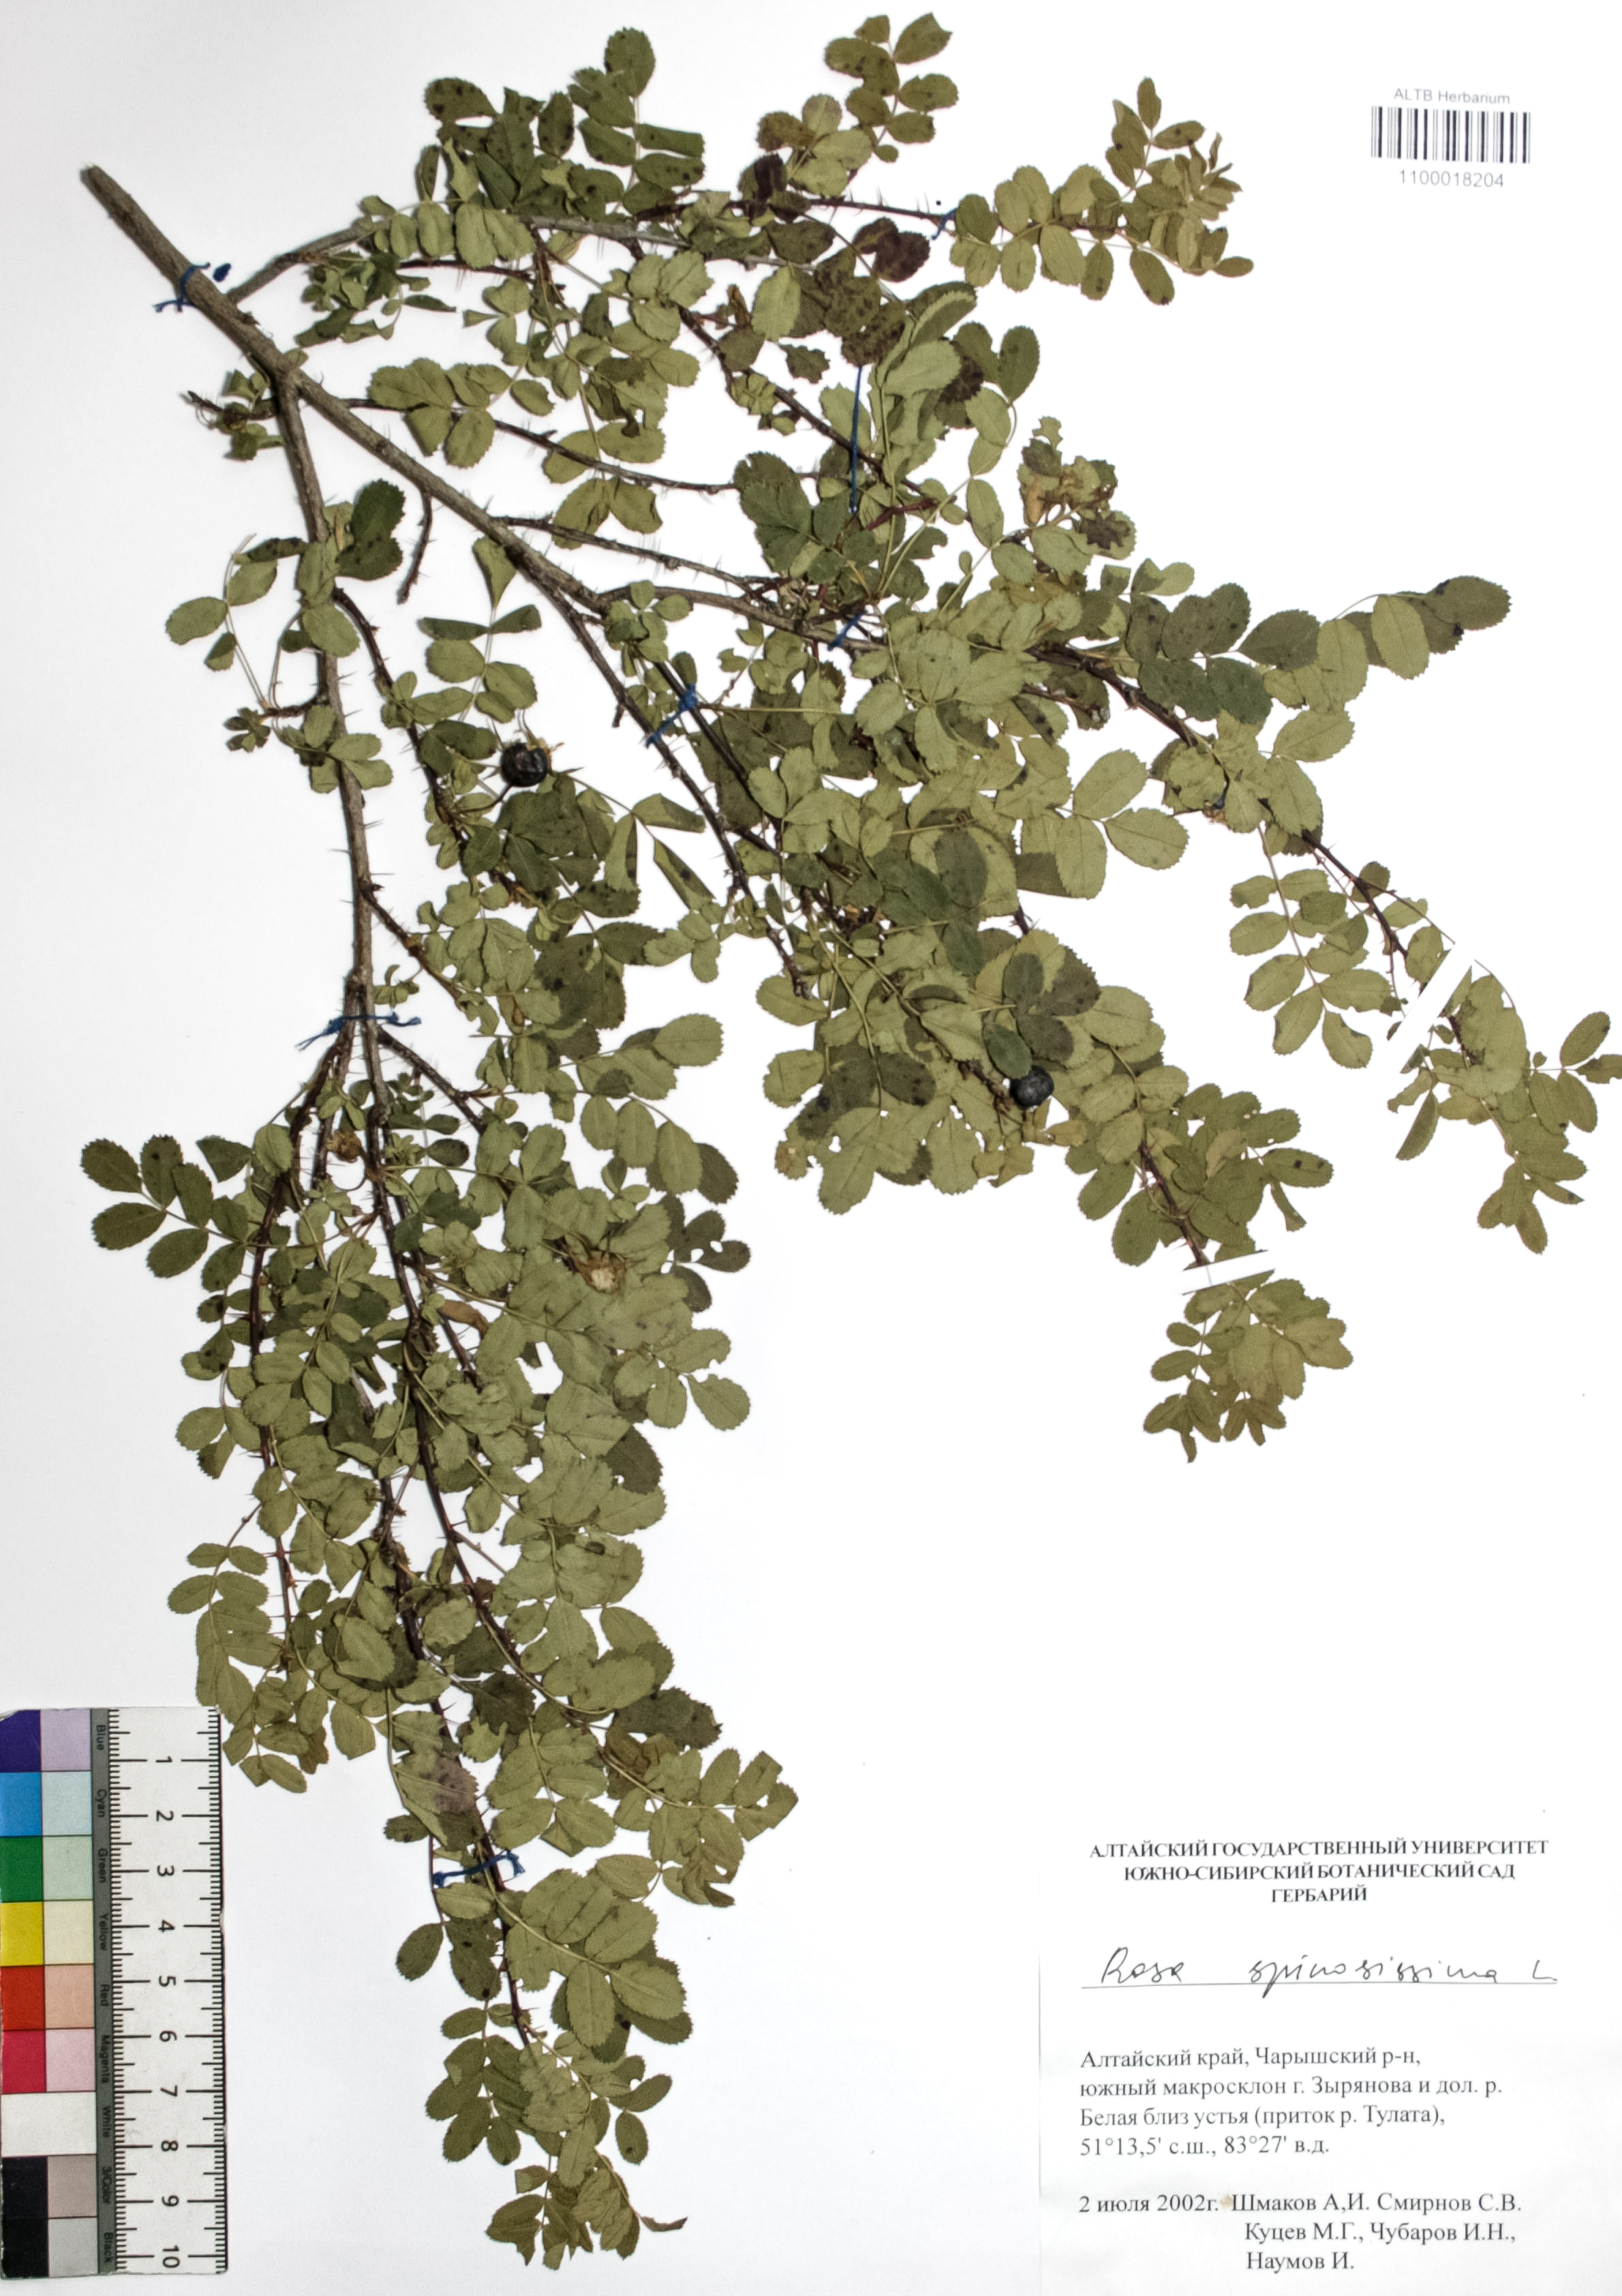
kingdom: Plantae
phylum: Tracheophyta
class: Magnoliopsida
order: Rosales
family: Rosaceae
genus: Rosa
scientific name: Rosa spinosissima
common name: Burnet rose
